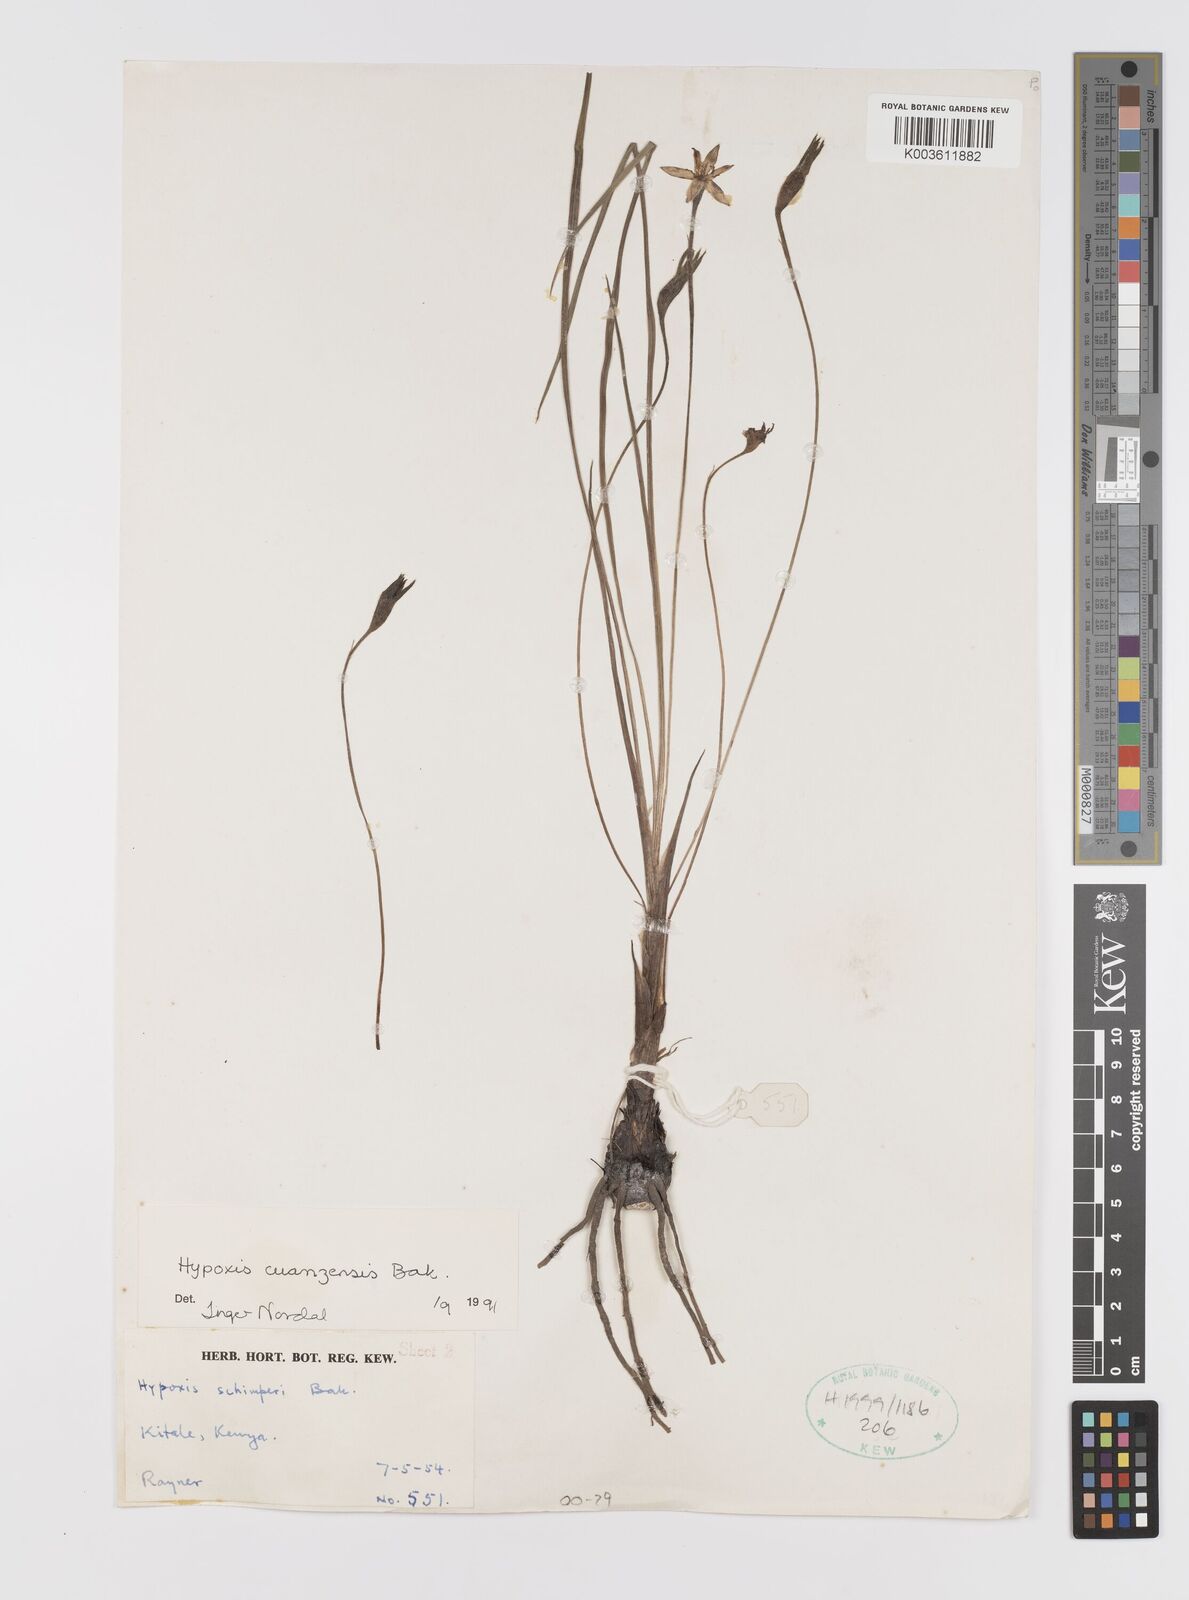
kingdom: Plantae
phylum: Tracheophyta
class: Liliopsida
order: Asparagales
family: Hypoxidaceae
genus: Hypoxis
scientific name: Hypoxis schimperi
